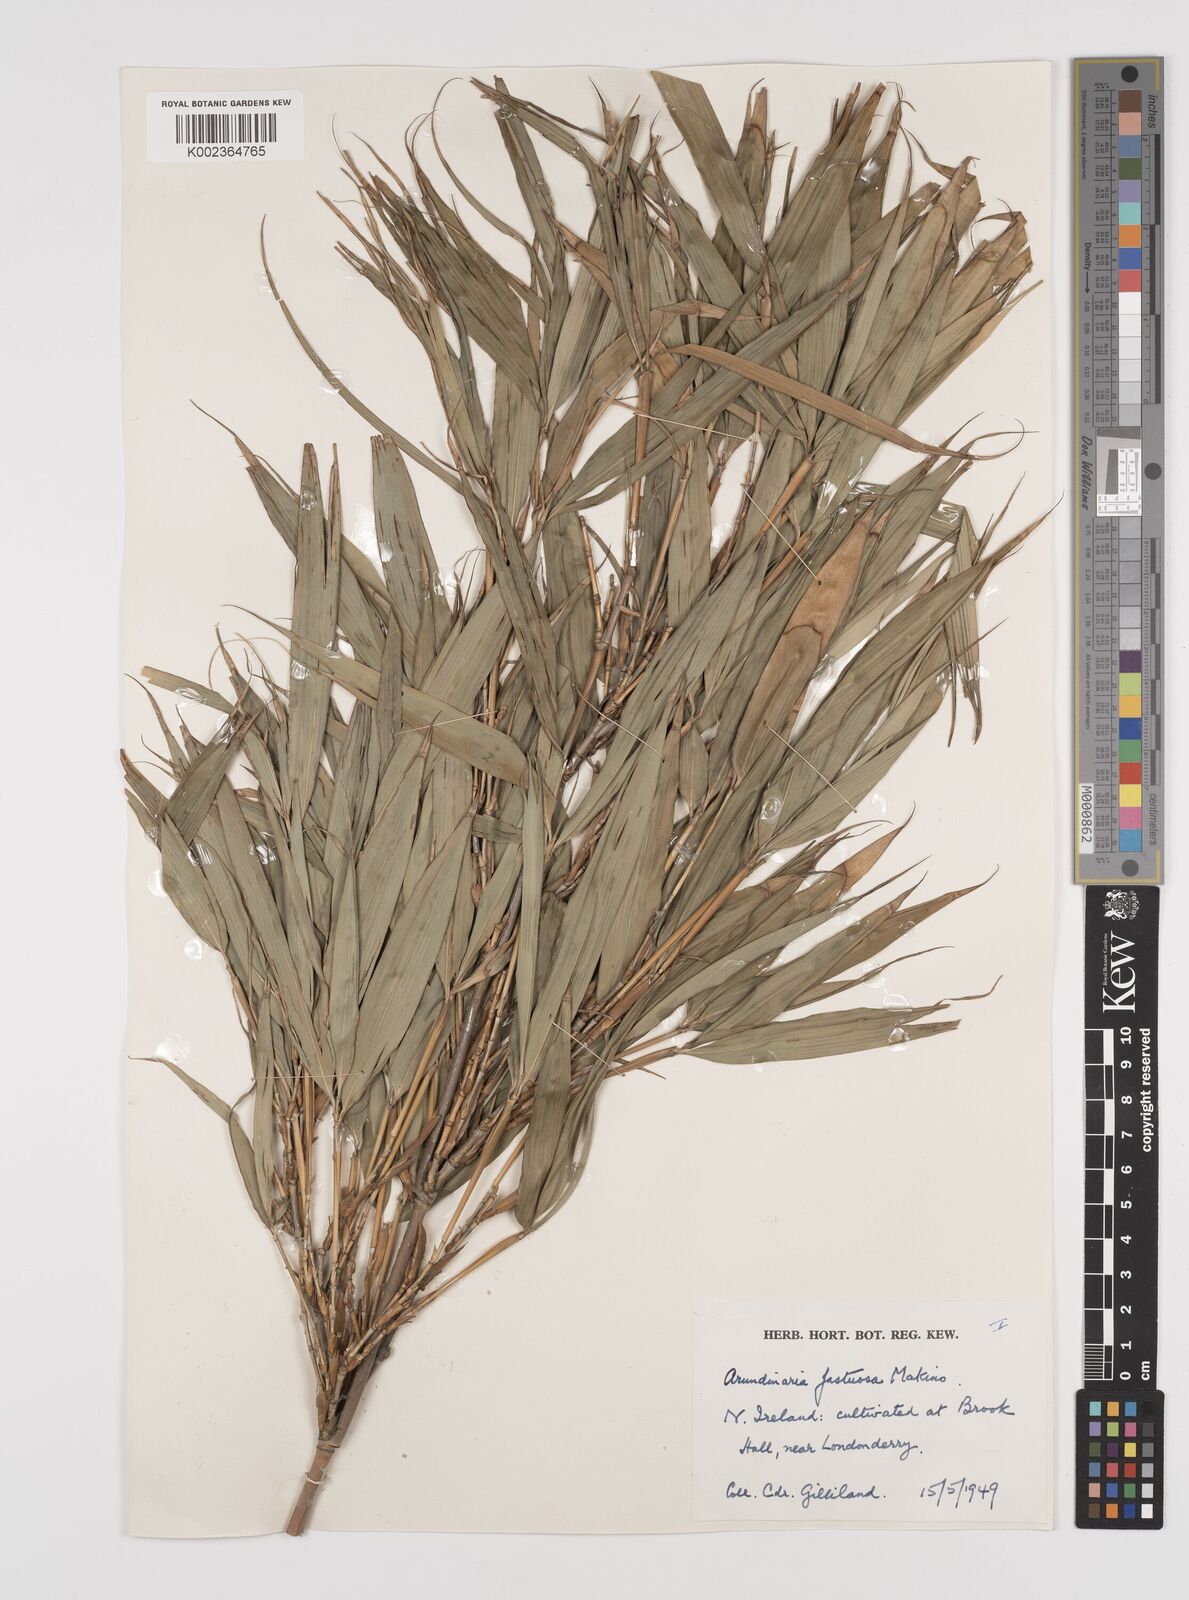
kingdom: Plantae
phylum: Tracheophyta
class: Liliopsida
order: Poales
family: Poaceae
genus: Semiarundinaria
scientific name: Semiarundinaria fastuosa
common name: Narihira bamboo
